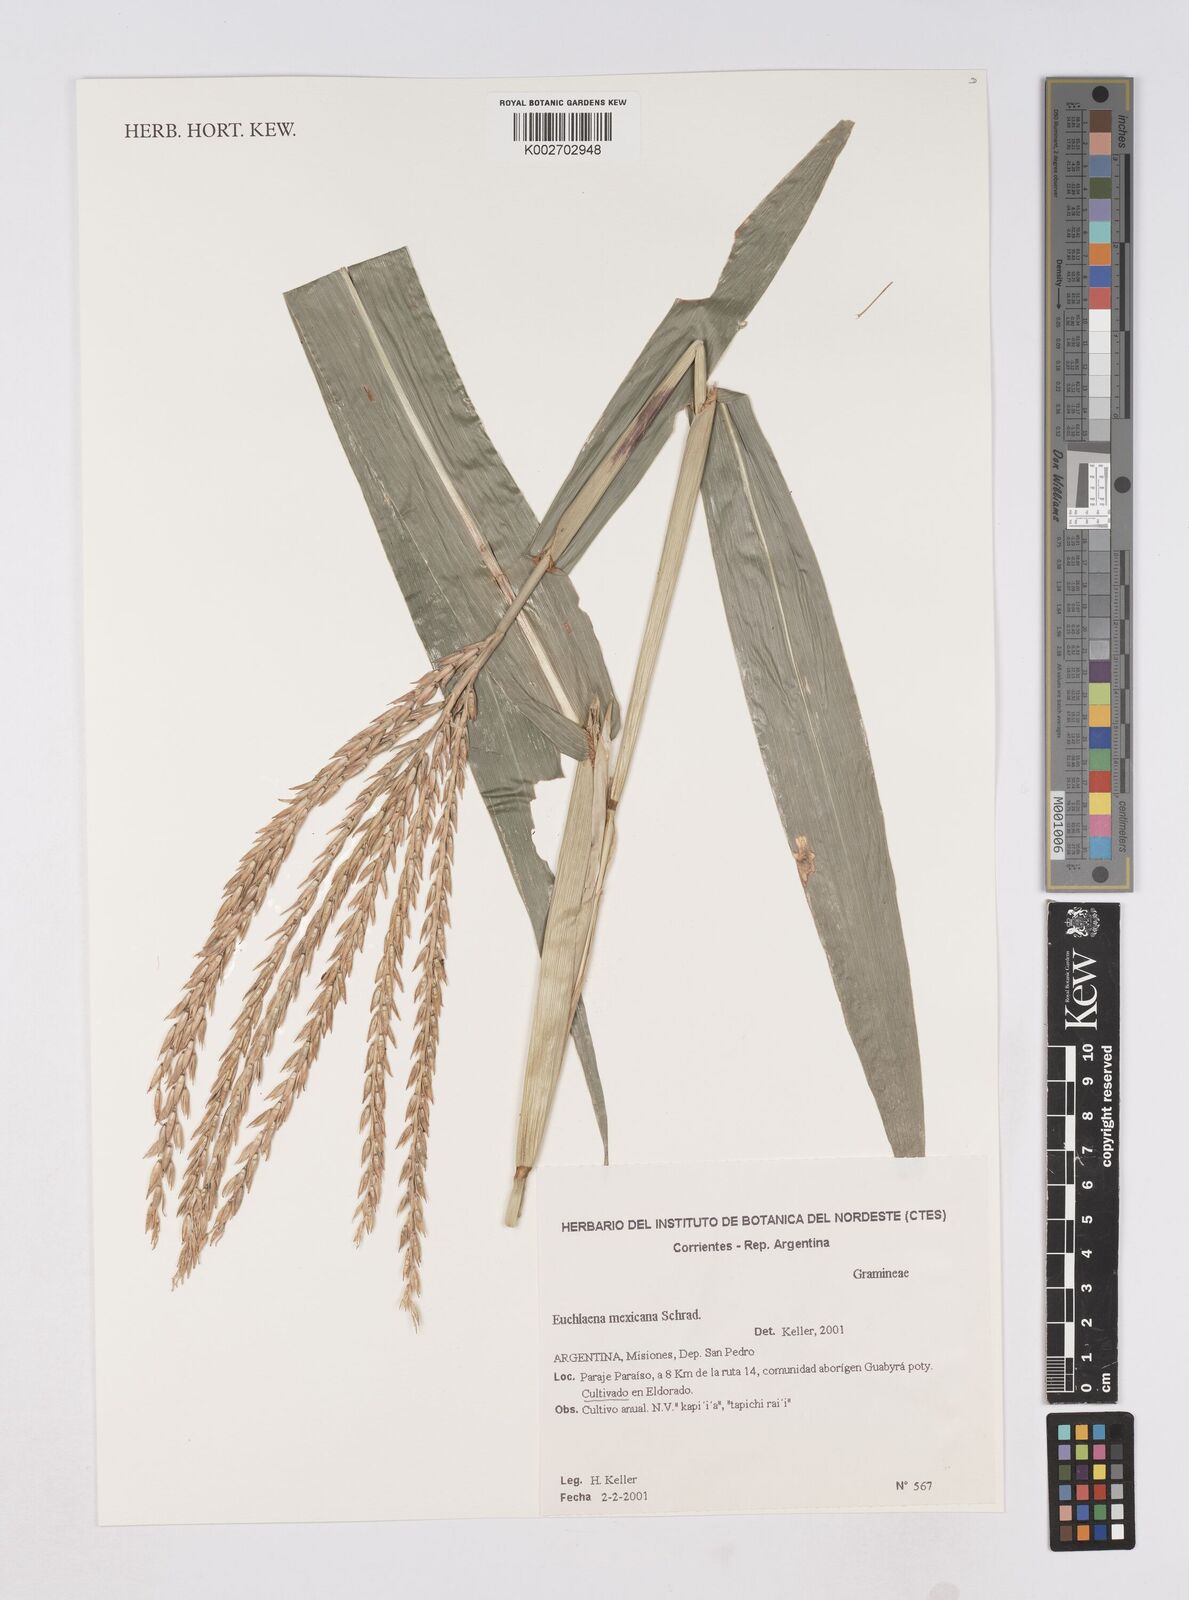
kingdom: Plantae
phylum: Tracheophyta
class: Liliopsida
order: Poales
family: Poaceae
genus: Zea
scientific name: Zea mexicana
